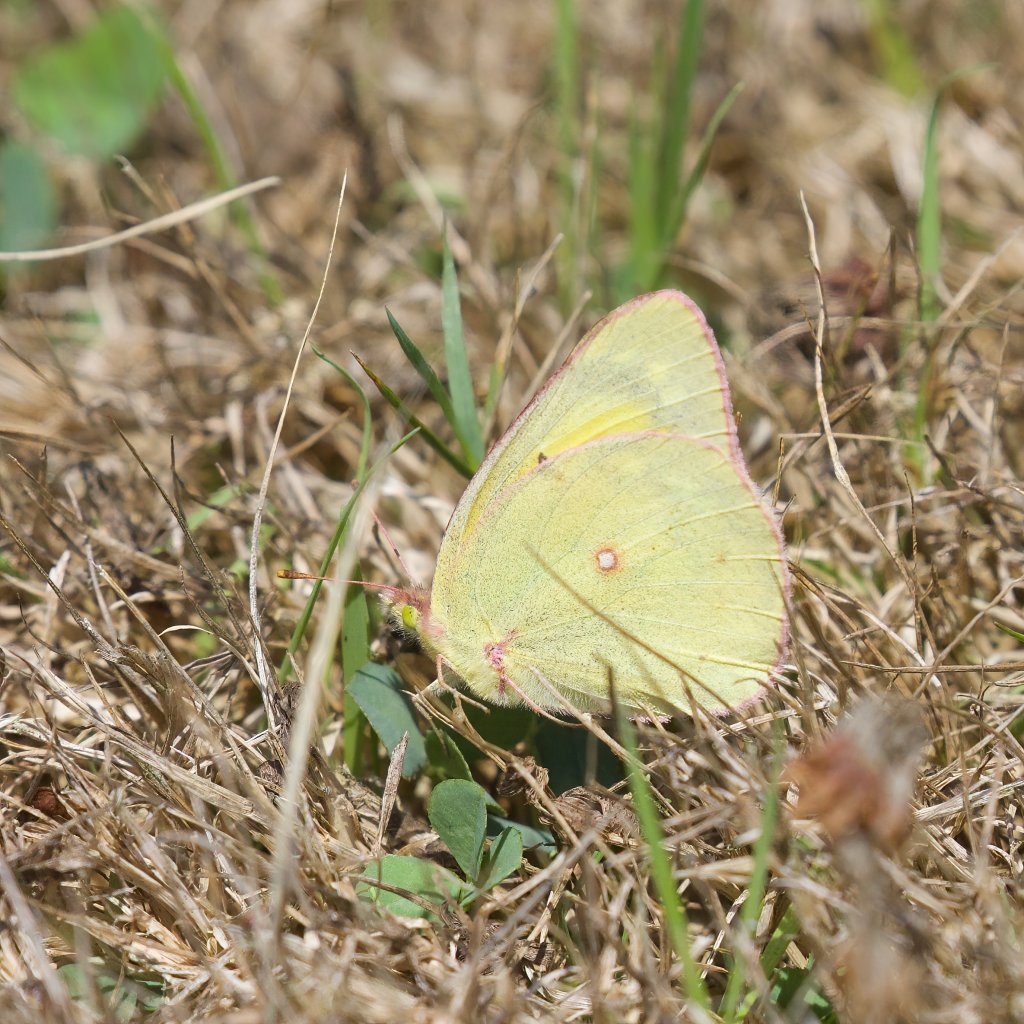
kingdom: Animalia
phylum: Arthropoda
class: Insecta
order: Lepidoptera
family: Pieridae
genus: Colias
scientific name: Colias philodice
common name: Clouded Sulphur
